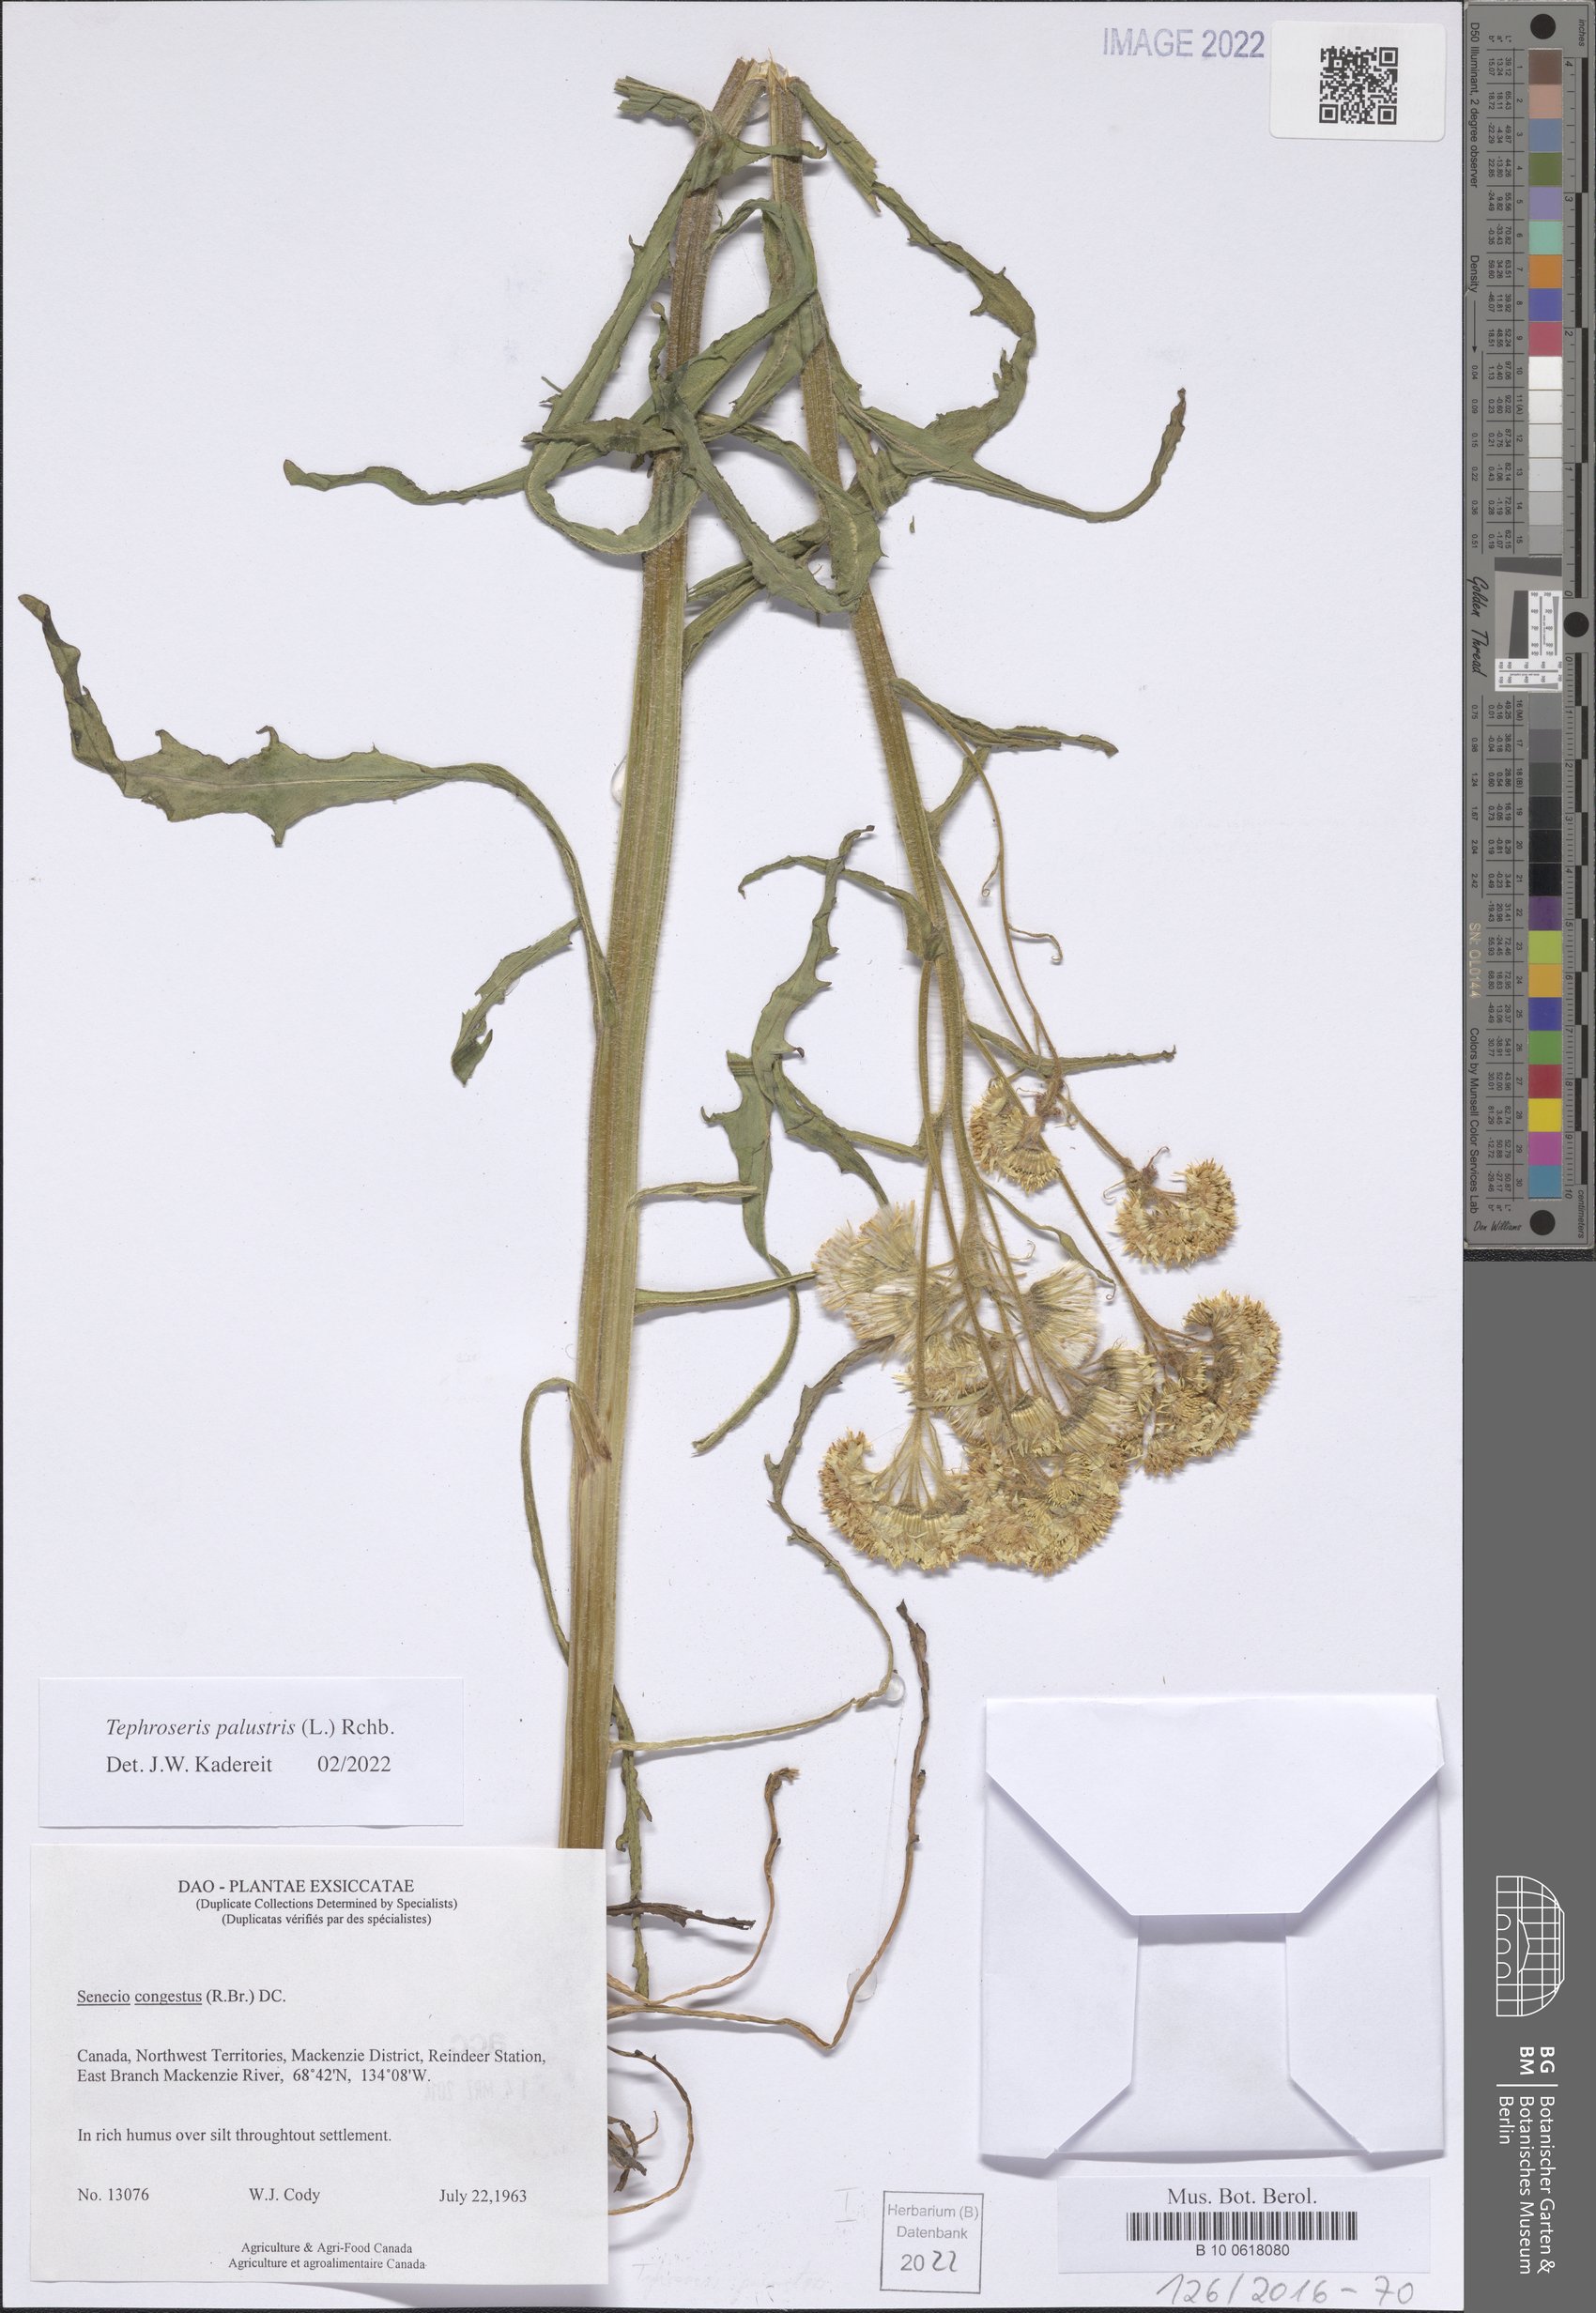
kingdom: Plantae
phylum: Tracheophyta
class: Magnoliopsida
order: Asterales
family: Asteraceae
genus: Tephroseris
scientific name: Tephroseris palustris
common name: Marsh fleawort
